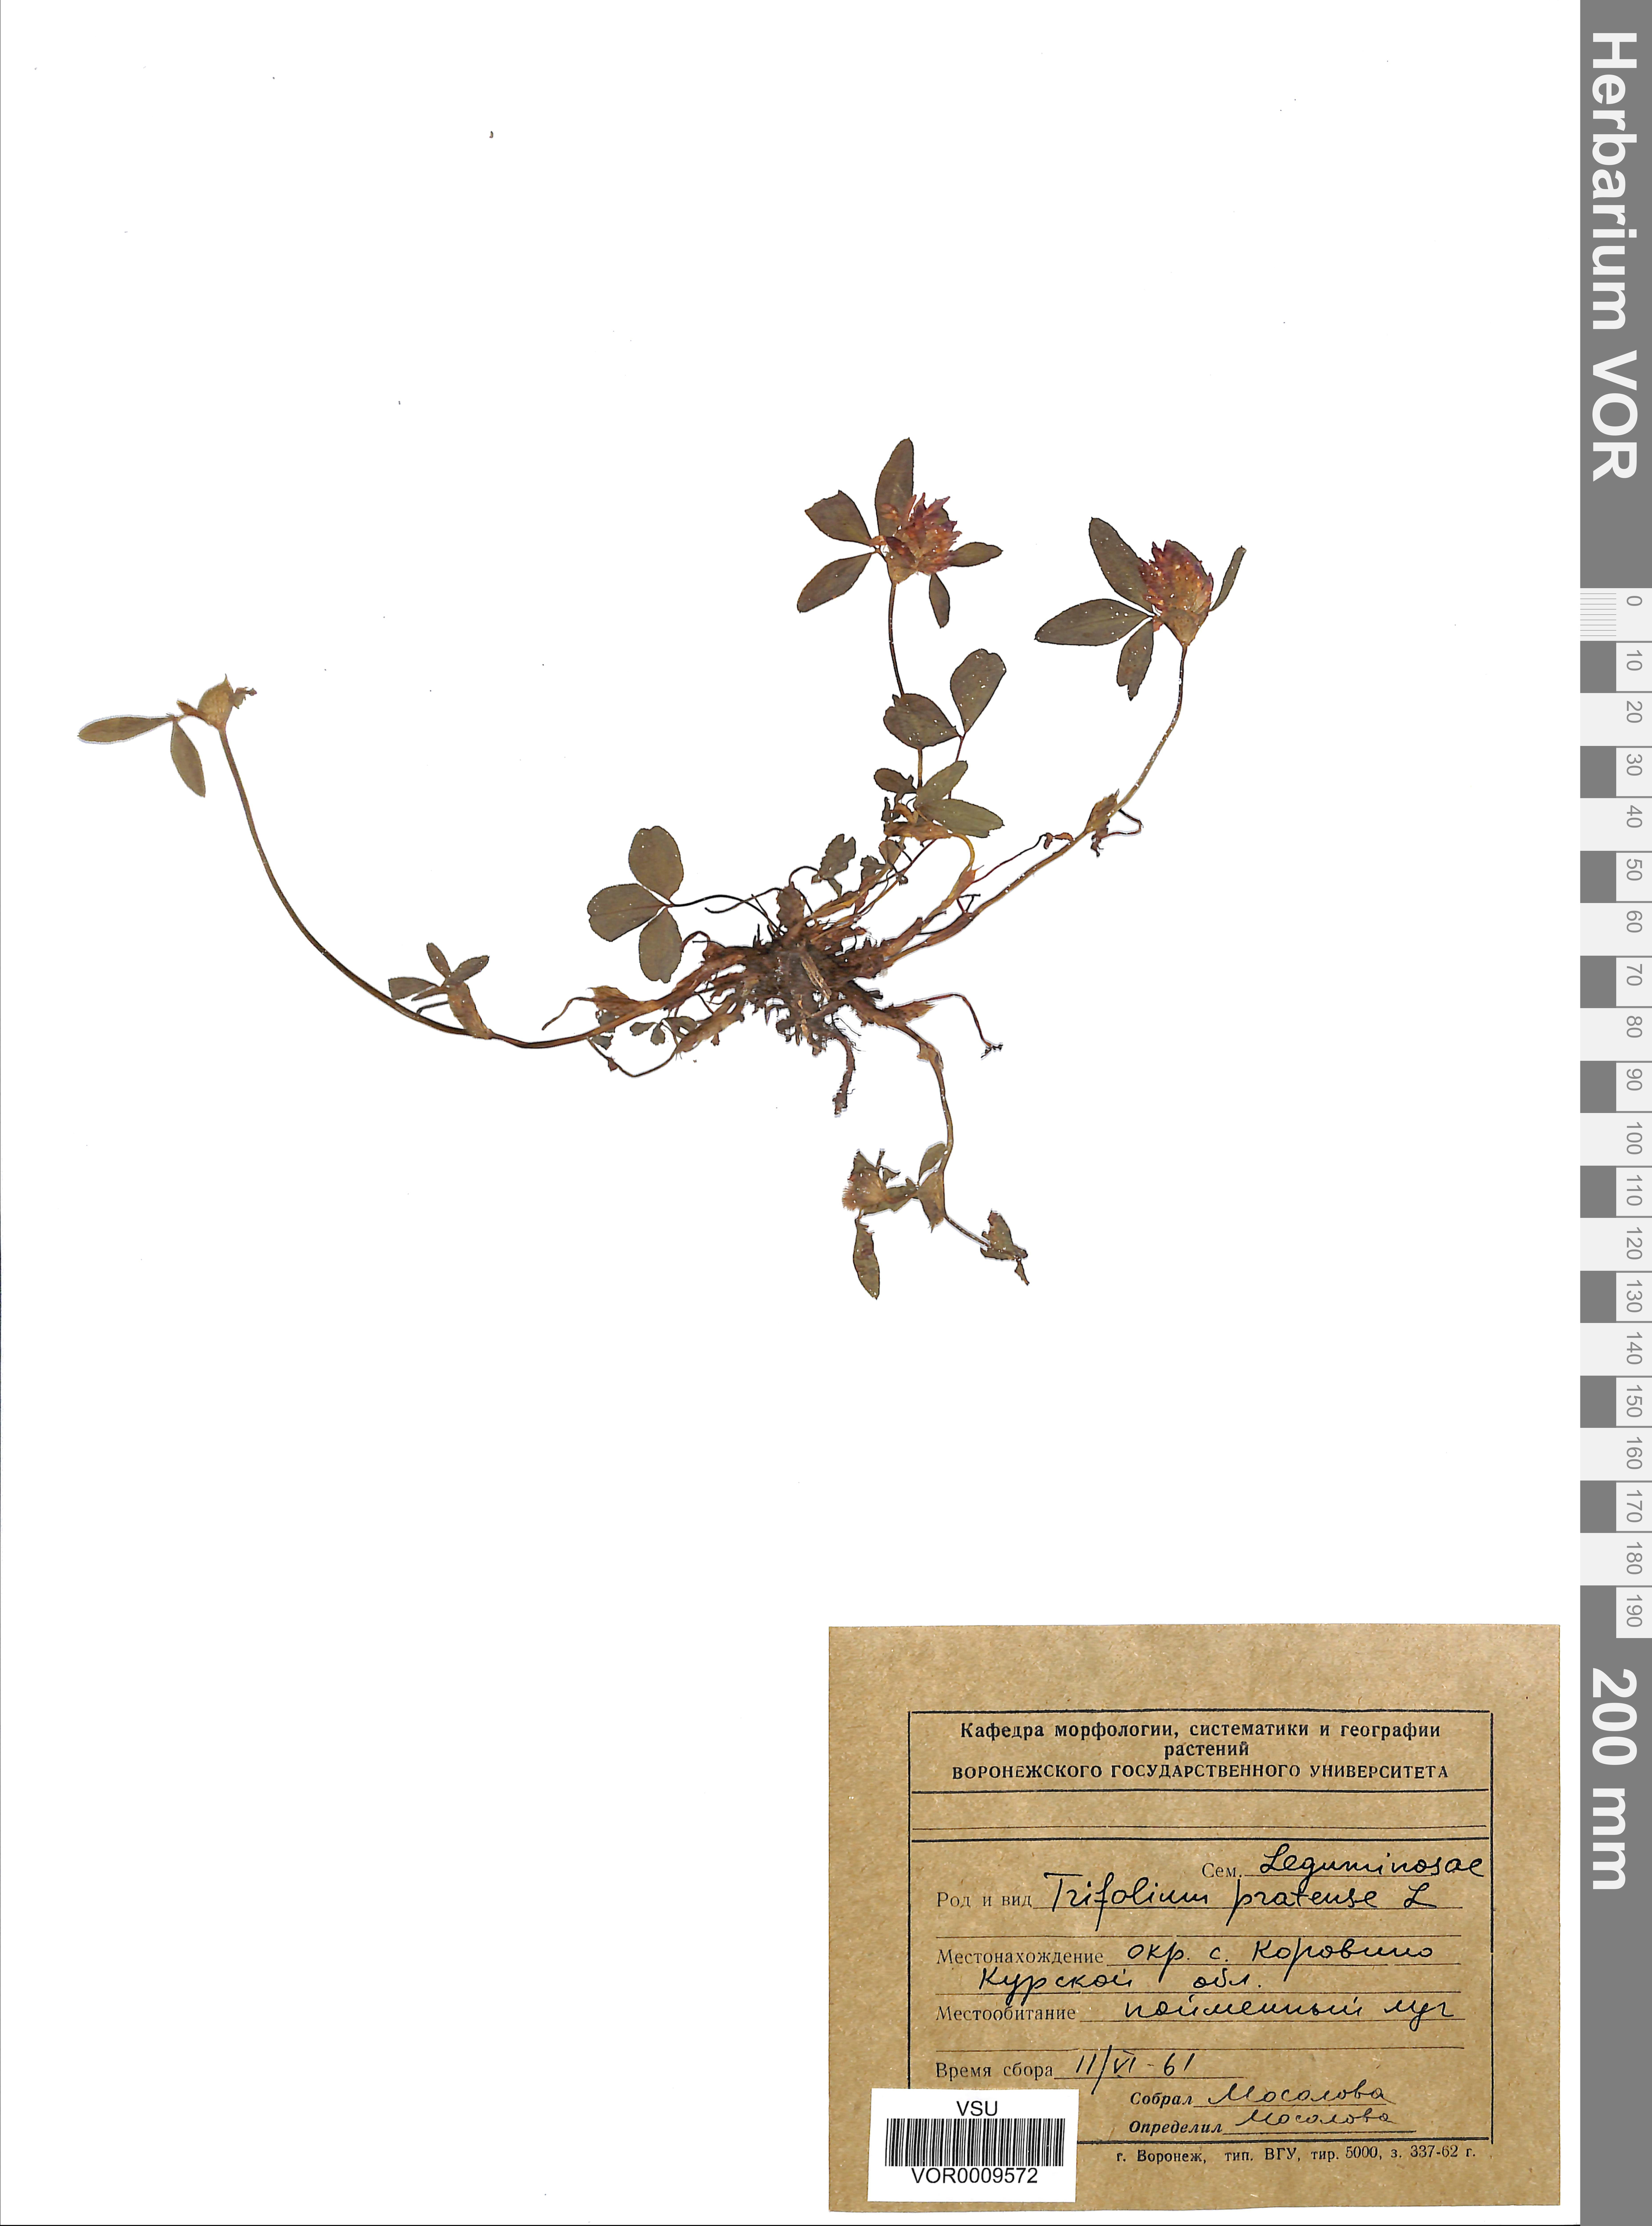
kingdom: Plantae
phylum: Tracheophyta
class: Magnoliopsida
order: Fabales
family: Fabaceae
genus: Trifolium
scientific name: Trifolium pratense
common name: Red clover
